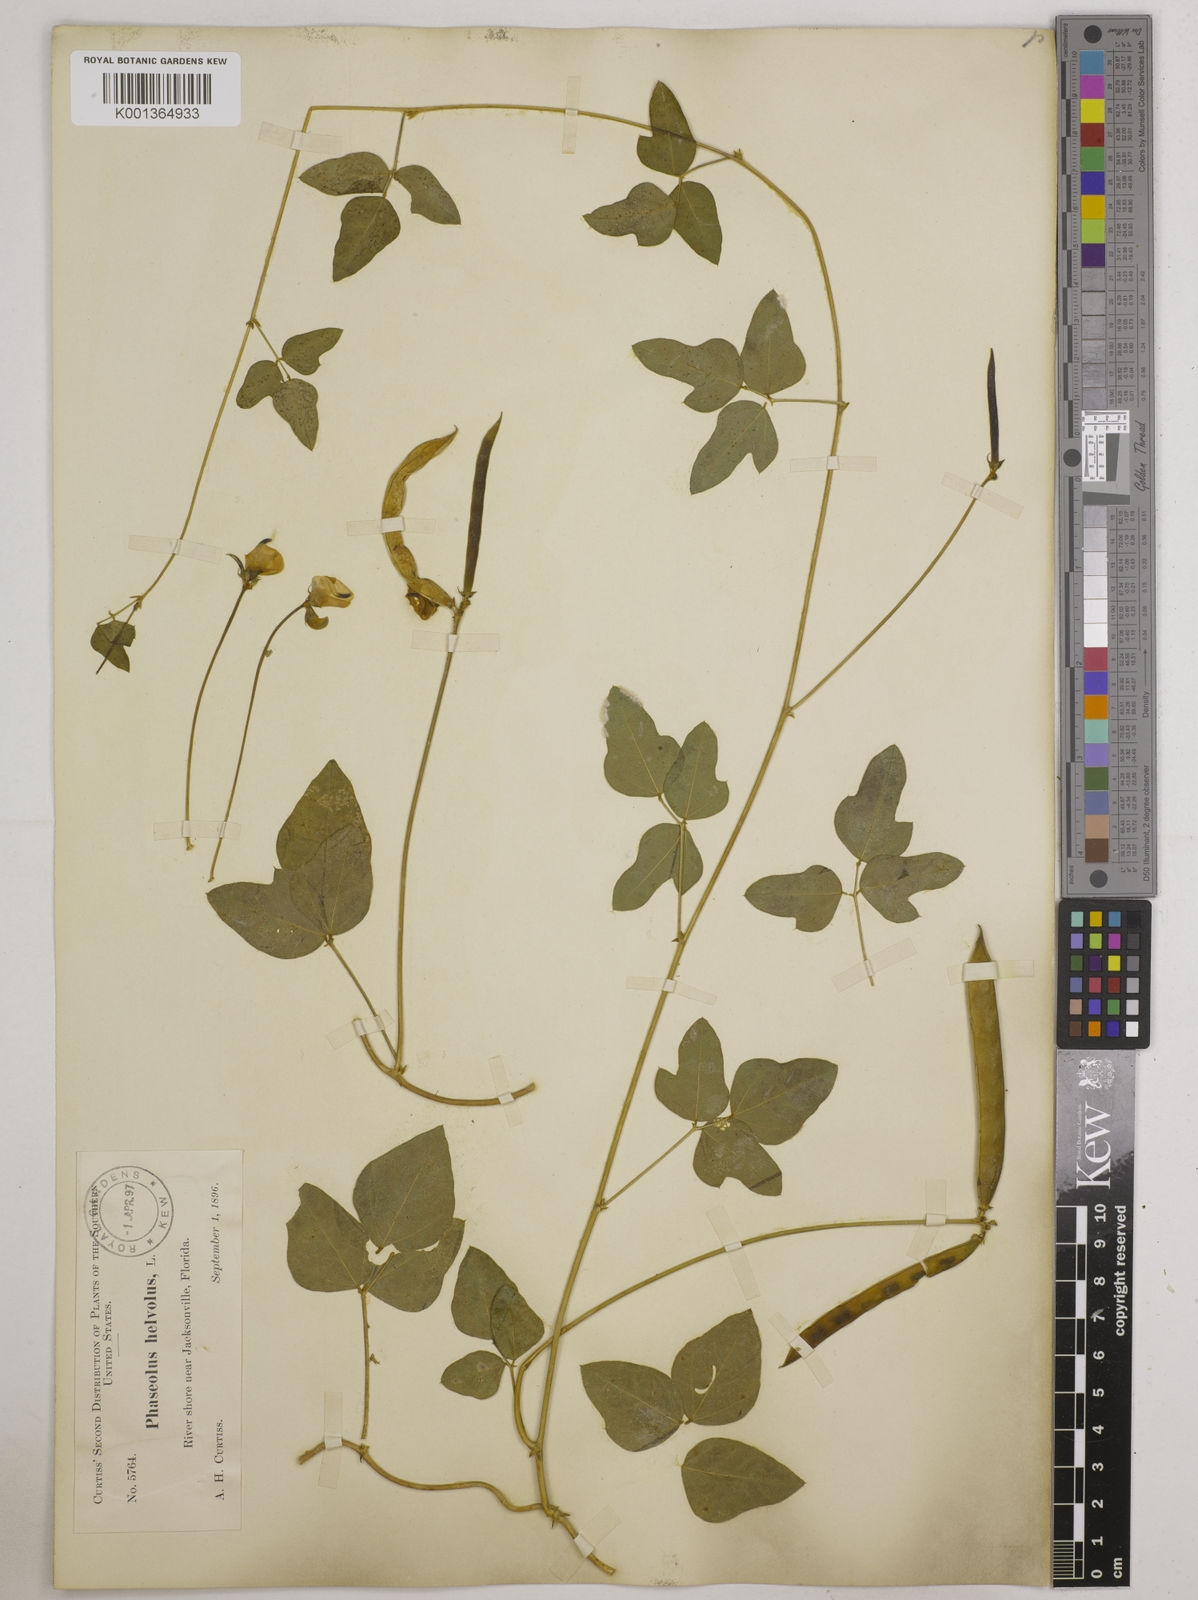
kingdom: Plantae
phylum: Tracheophyta
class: Magnoliopsida
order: Fabales
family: Fabaceae
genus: Strophostyles
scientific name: Strophostyles
